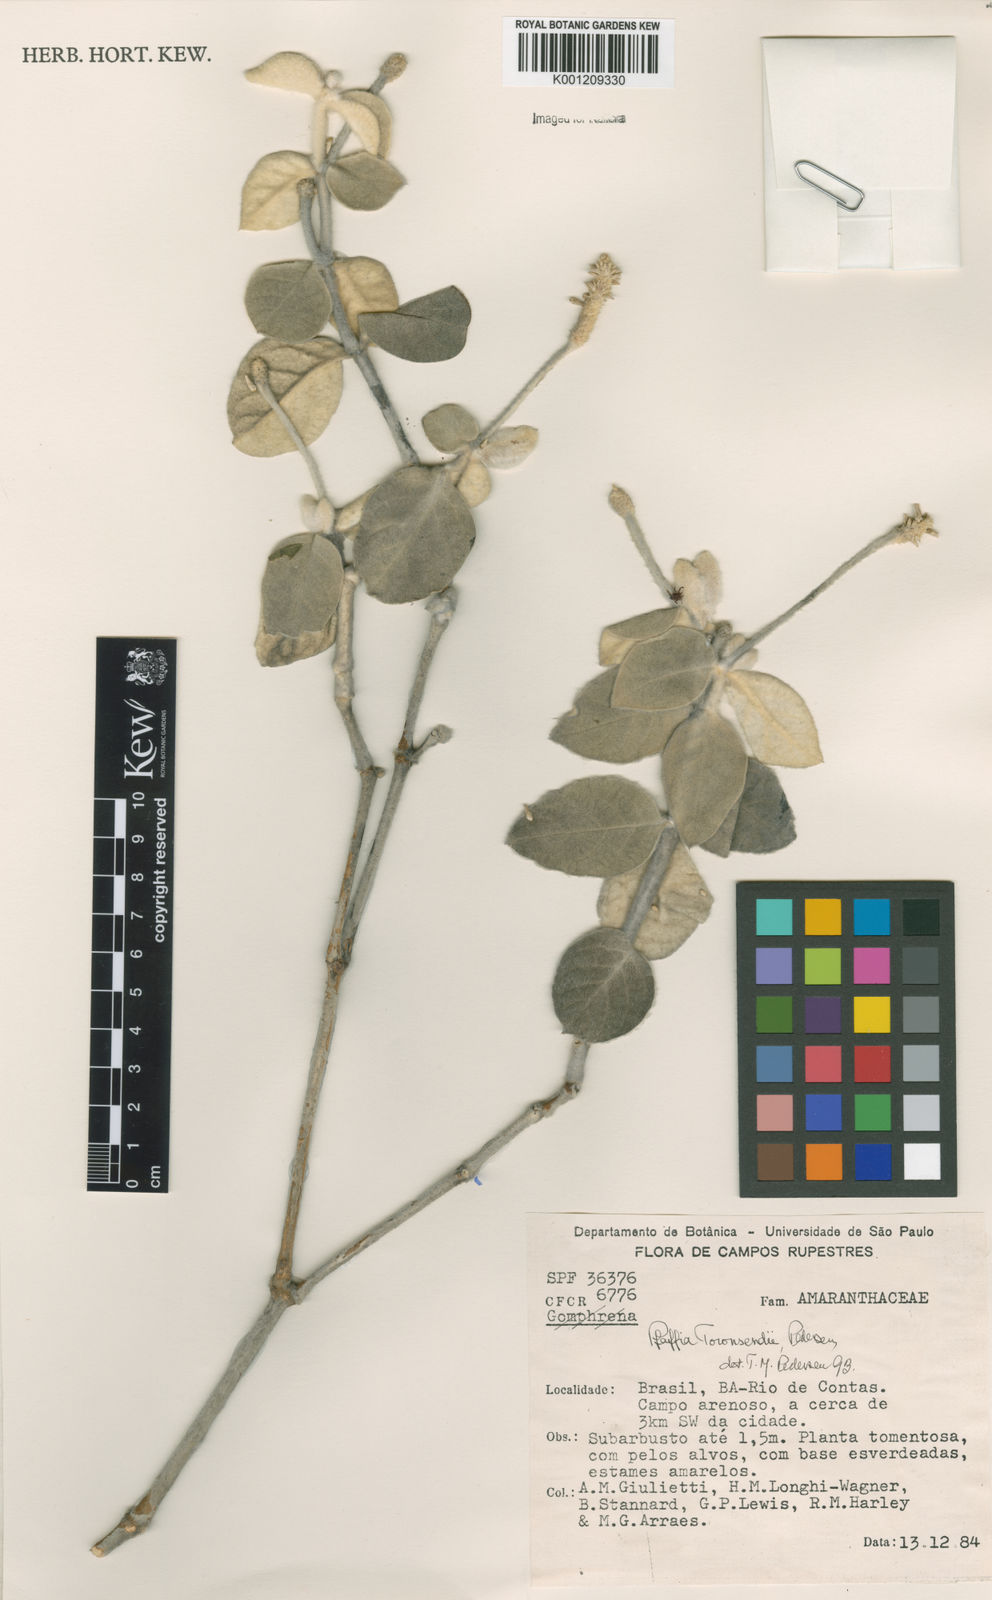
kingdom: Plantae
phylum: Tracheophyta
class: Magnoliopsida
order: Caryophyllales
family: Amaranthaceae
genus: Pfaffia
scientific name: Pfaffia townsendii
